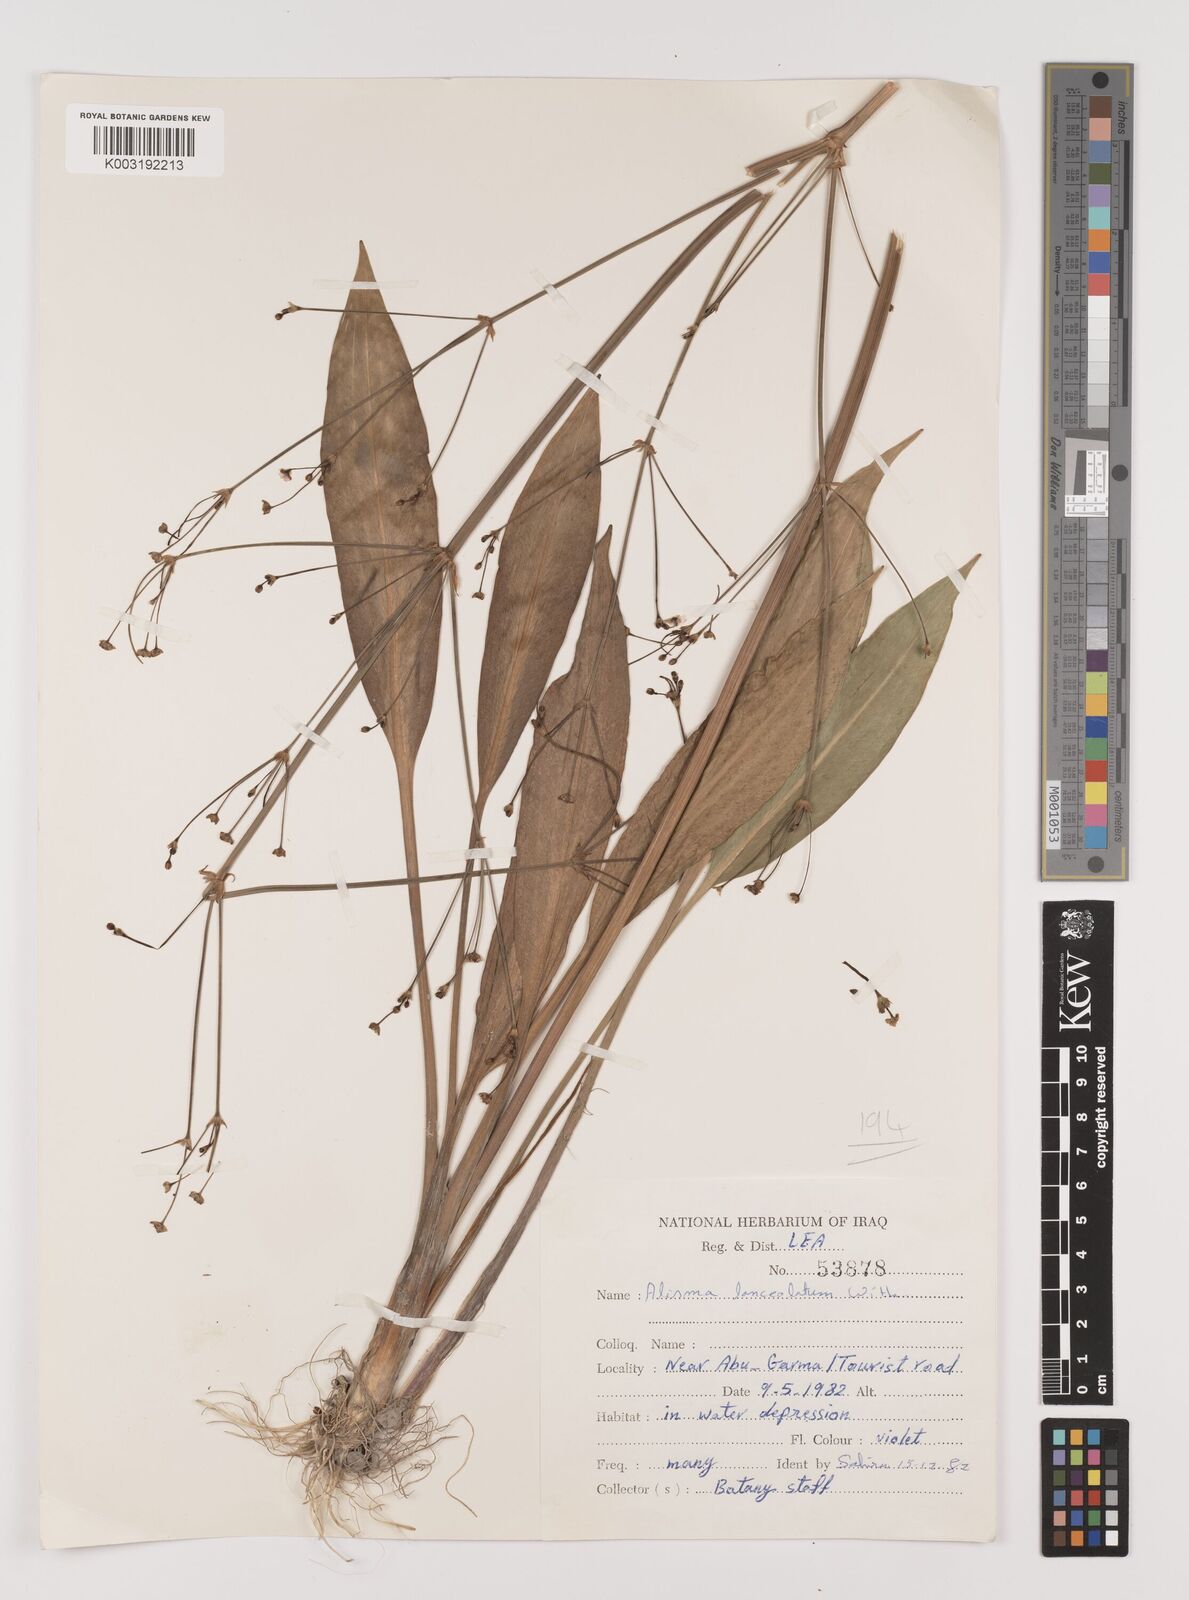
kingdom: Plantae
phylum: Tracheophyta
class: Liliopsida
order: Alismatales
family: Alismataceae
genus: Alisma
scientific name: Alisma lanceolatum
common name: Narrow-leaved water-plantain
